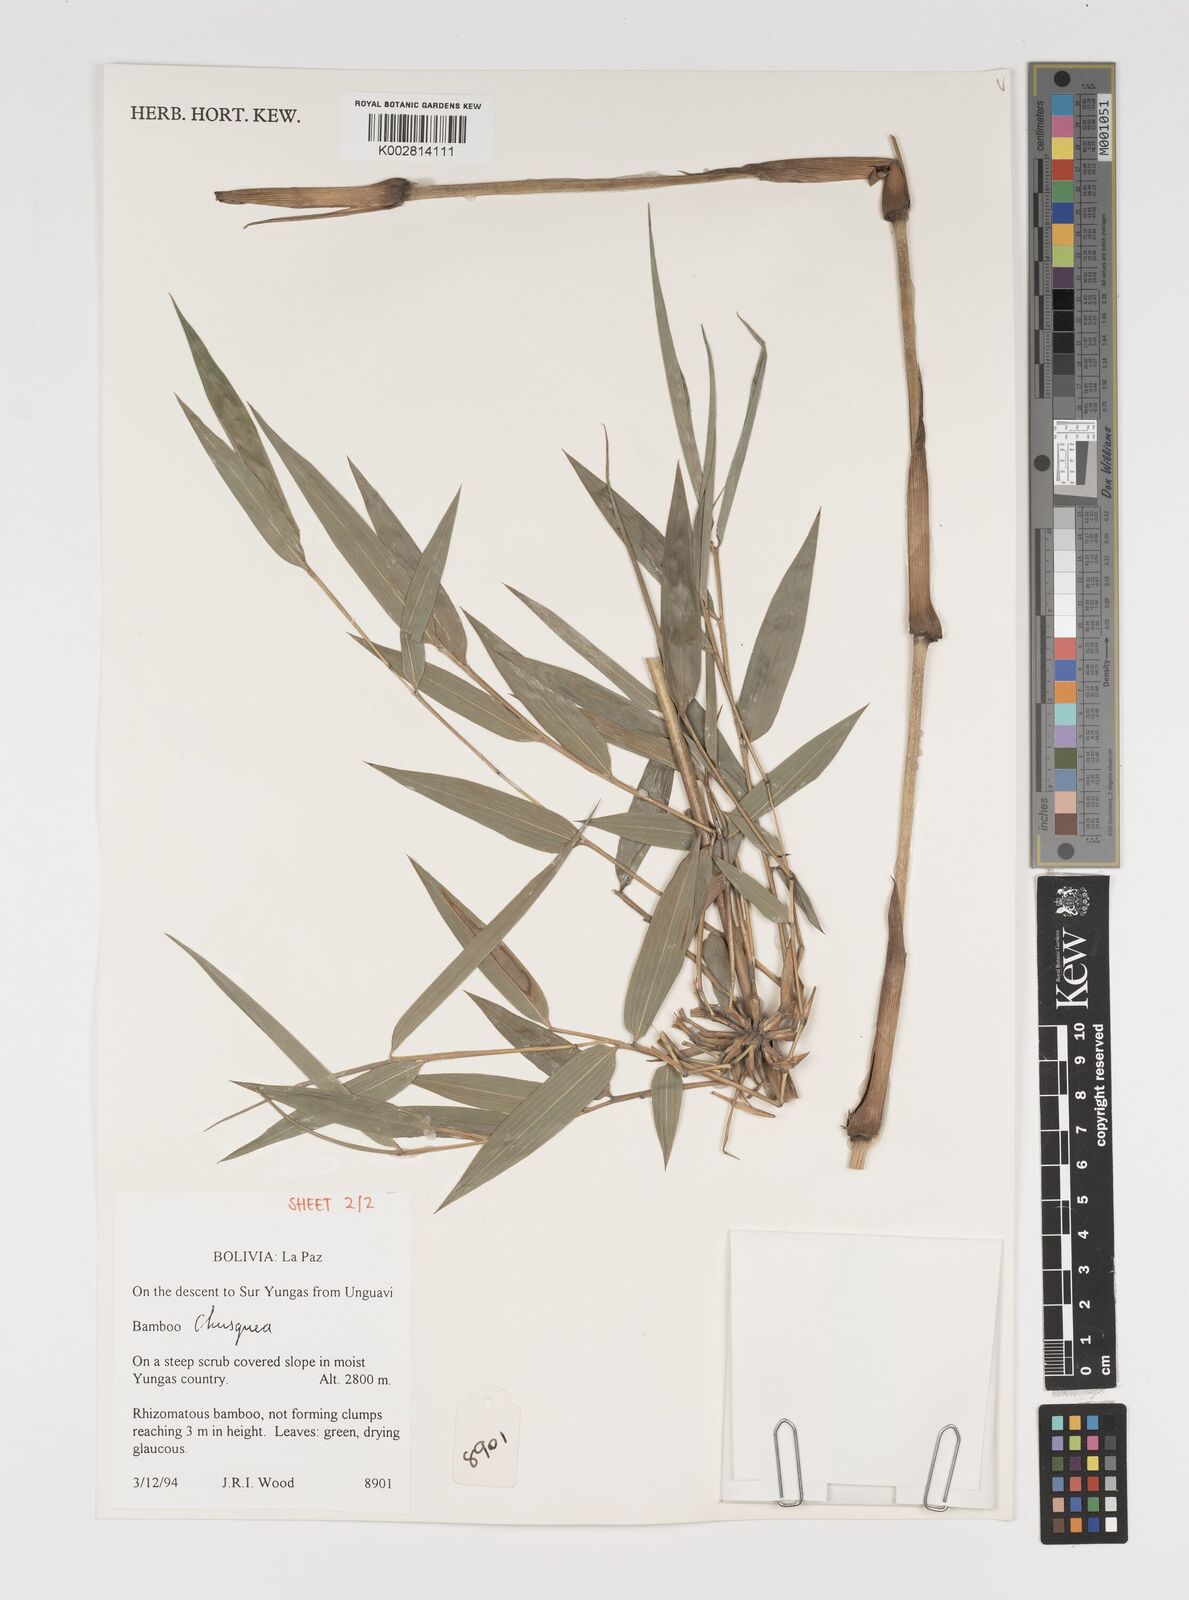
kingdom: Plantae
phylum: Tracheophyta
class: Liliopsida
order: Poales
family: Poaceae
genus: Chusquea
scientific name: Chusquea
